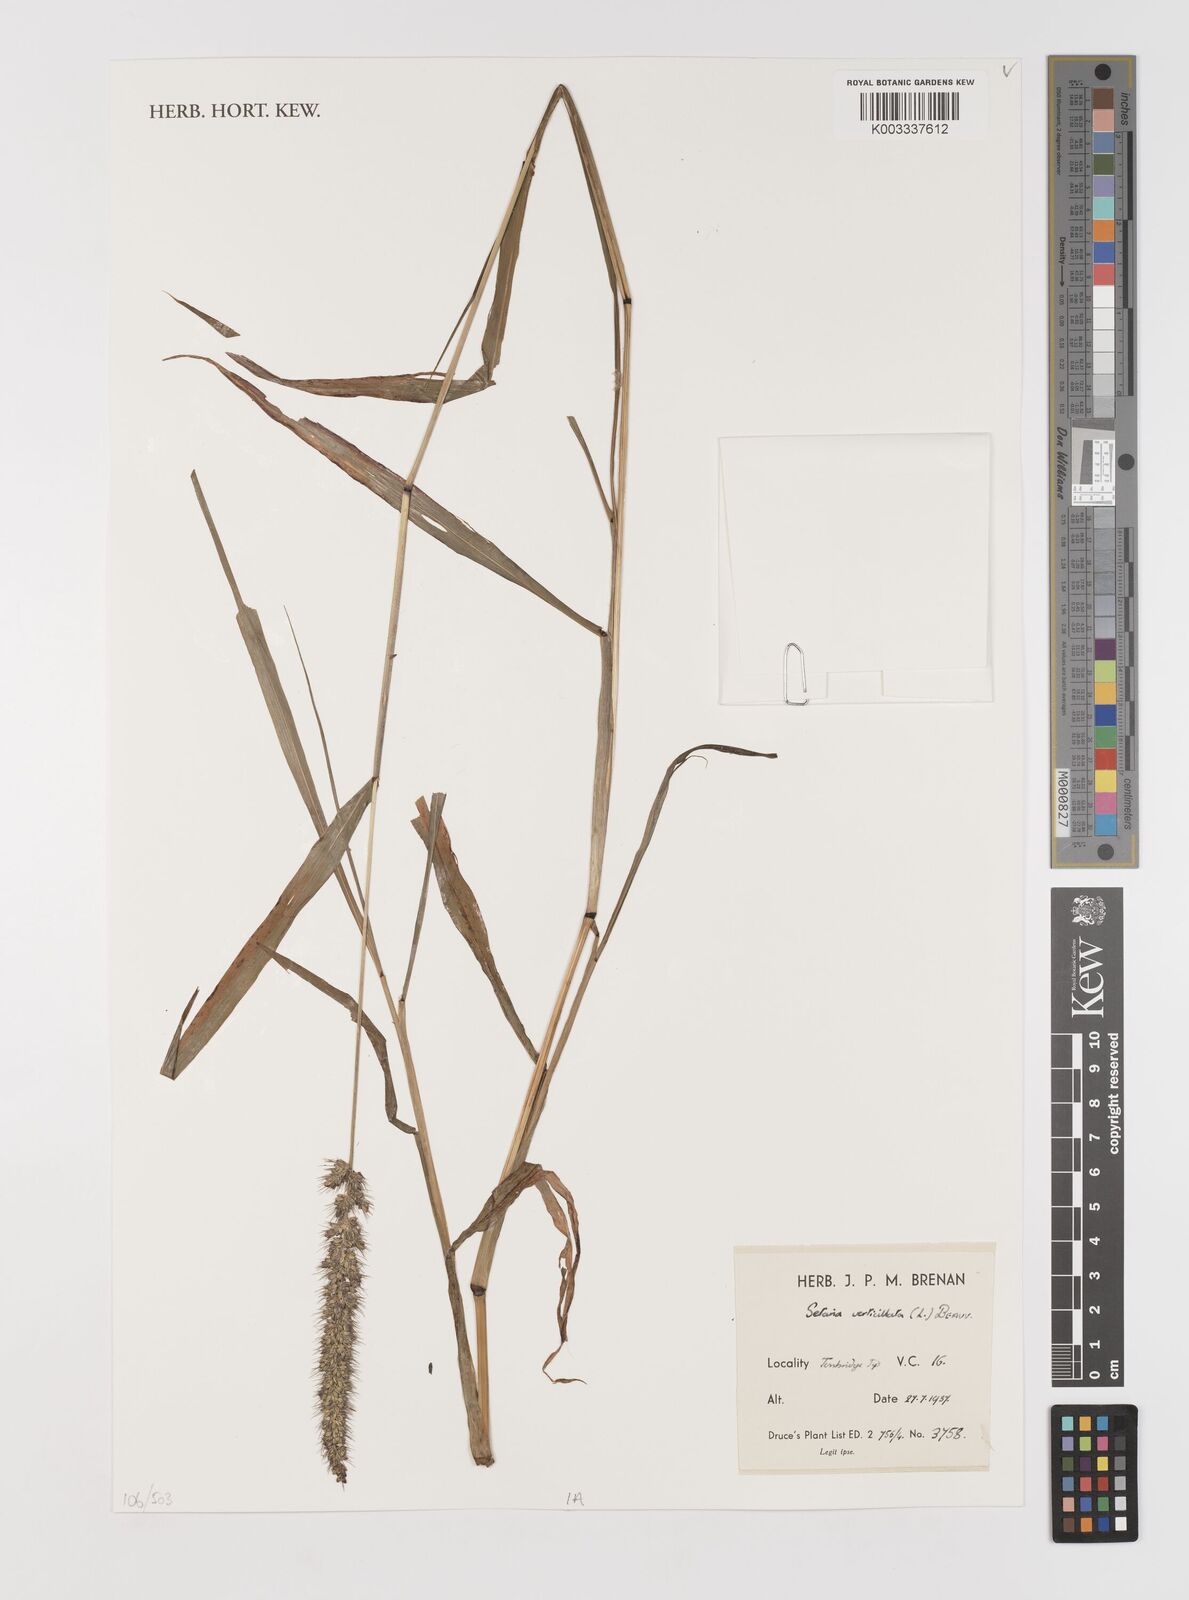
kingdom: Plantae
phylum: Tracheophyta
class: Liliopsida
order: Poales
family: Poaceae
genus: Setaria
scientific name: Setaria verticillata
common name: Hooked bristlegrass
